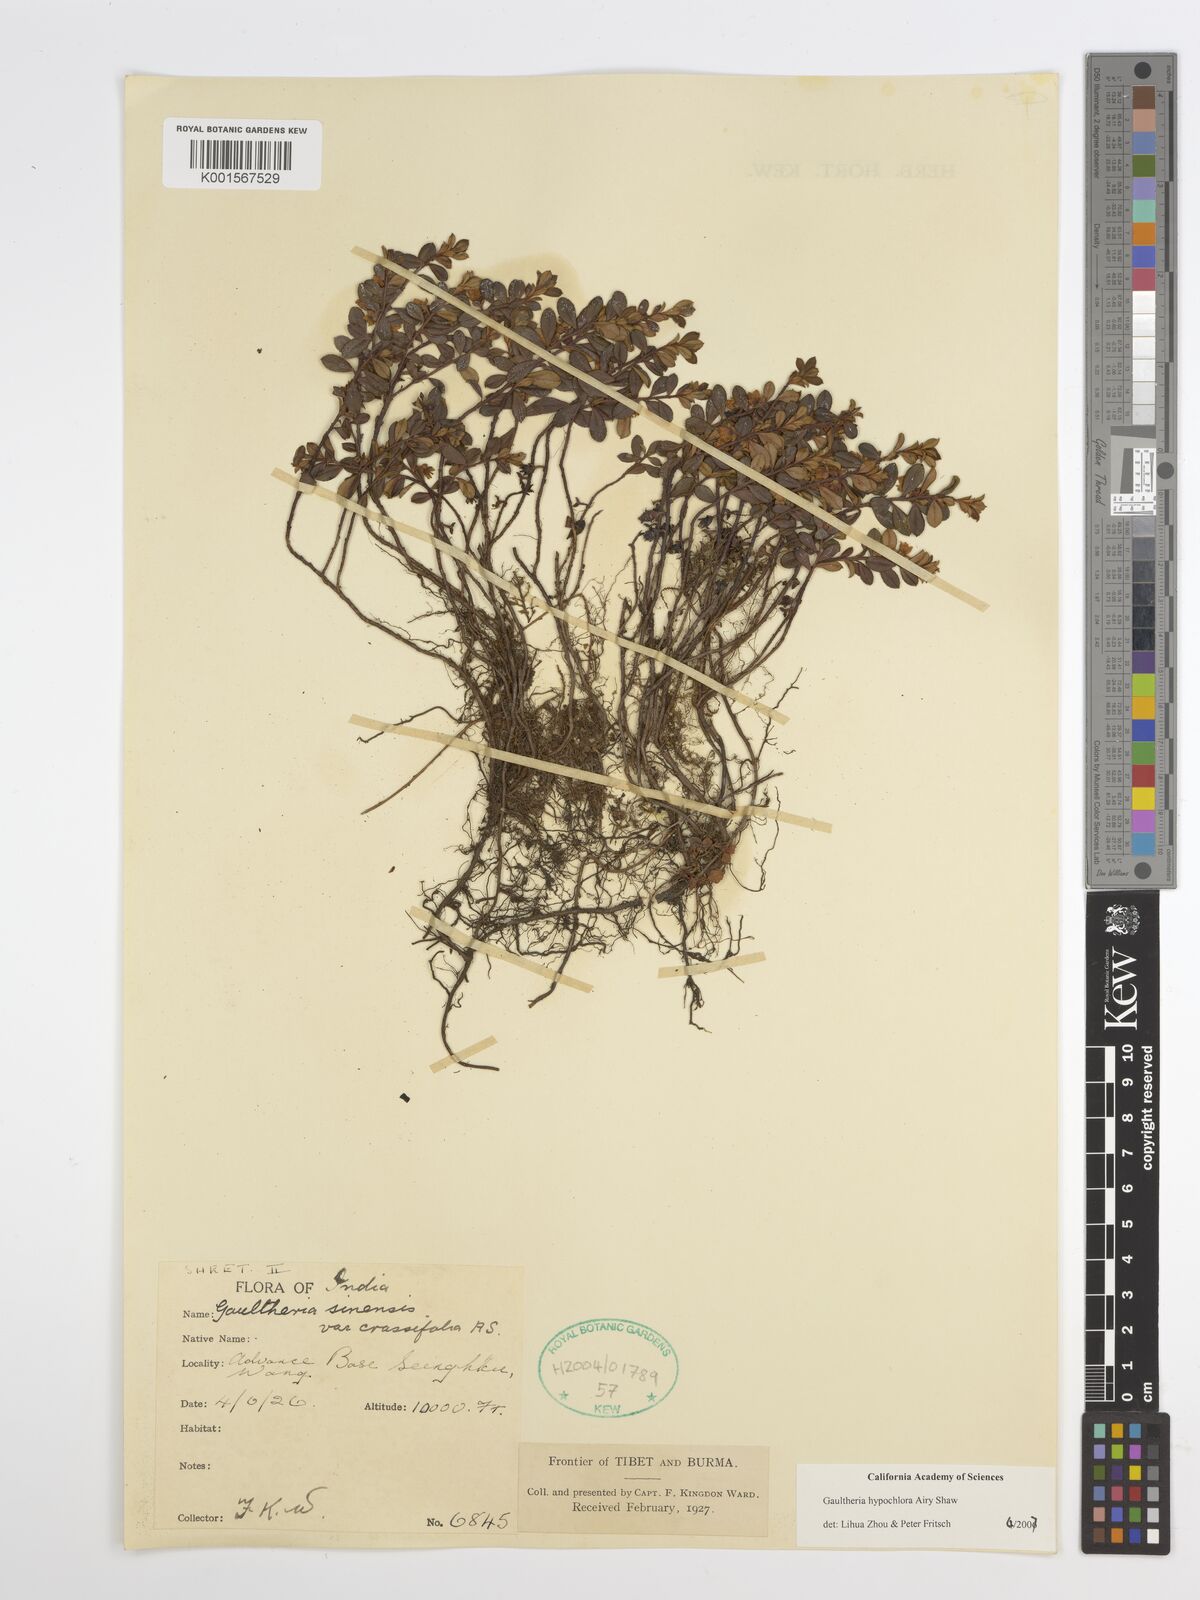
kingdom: Plantae
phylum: Tracheophyta
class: Magnoliopsida
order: Ericales
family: Ericaceae
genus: Gaultheria
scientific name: Gaultheria hypochlora
